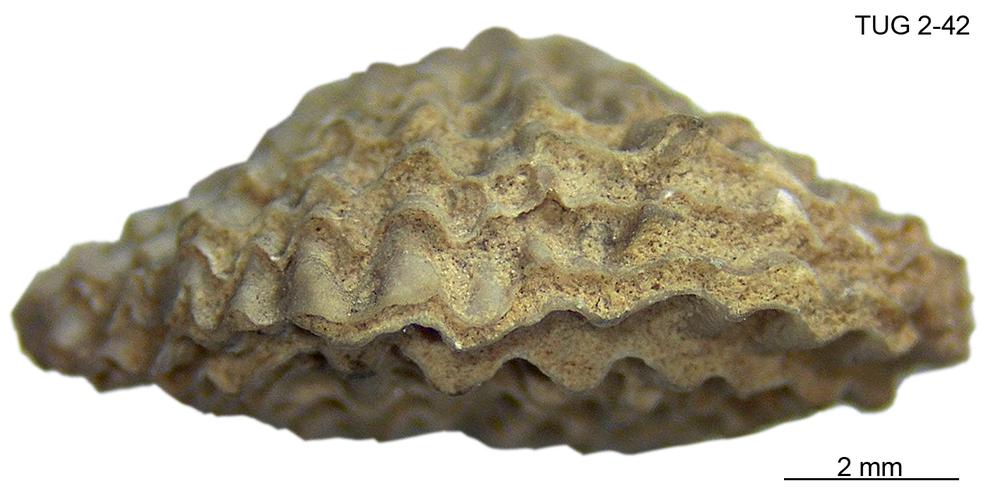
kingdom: Animalia
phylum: Brachiopoda
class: Rhynchonellata
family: Dolerorthidae
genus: Glyptorthis
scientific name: Glyptorthis squamata
